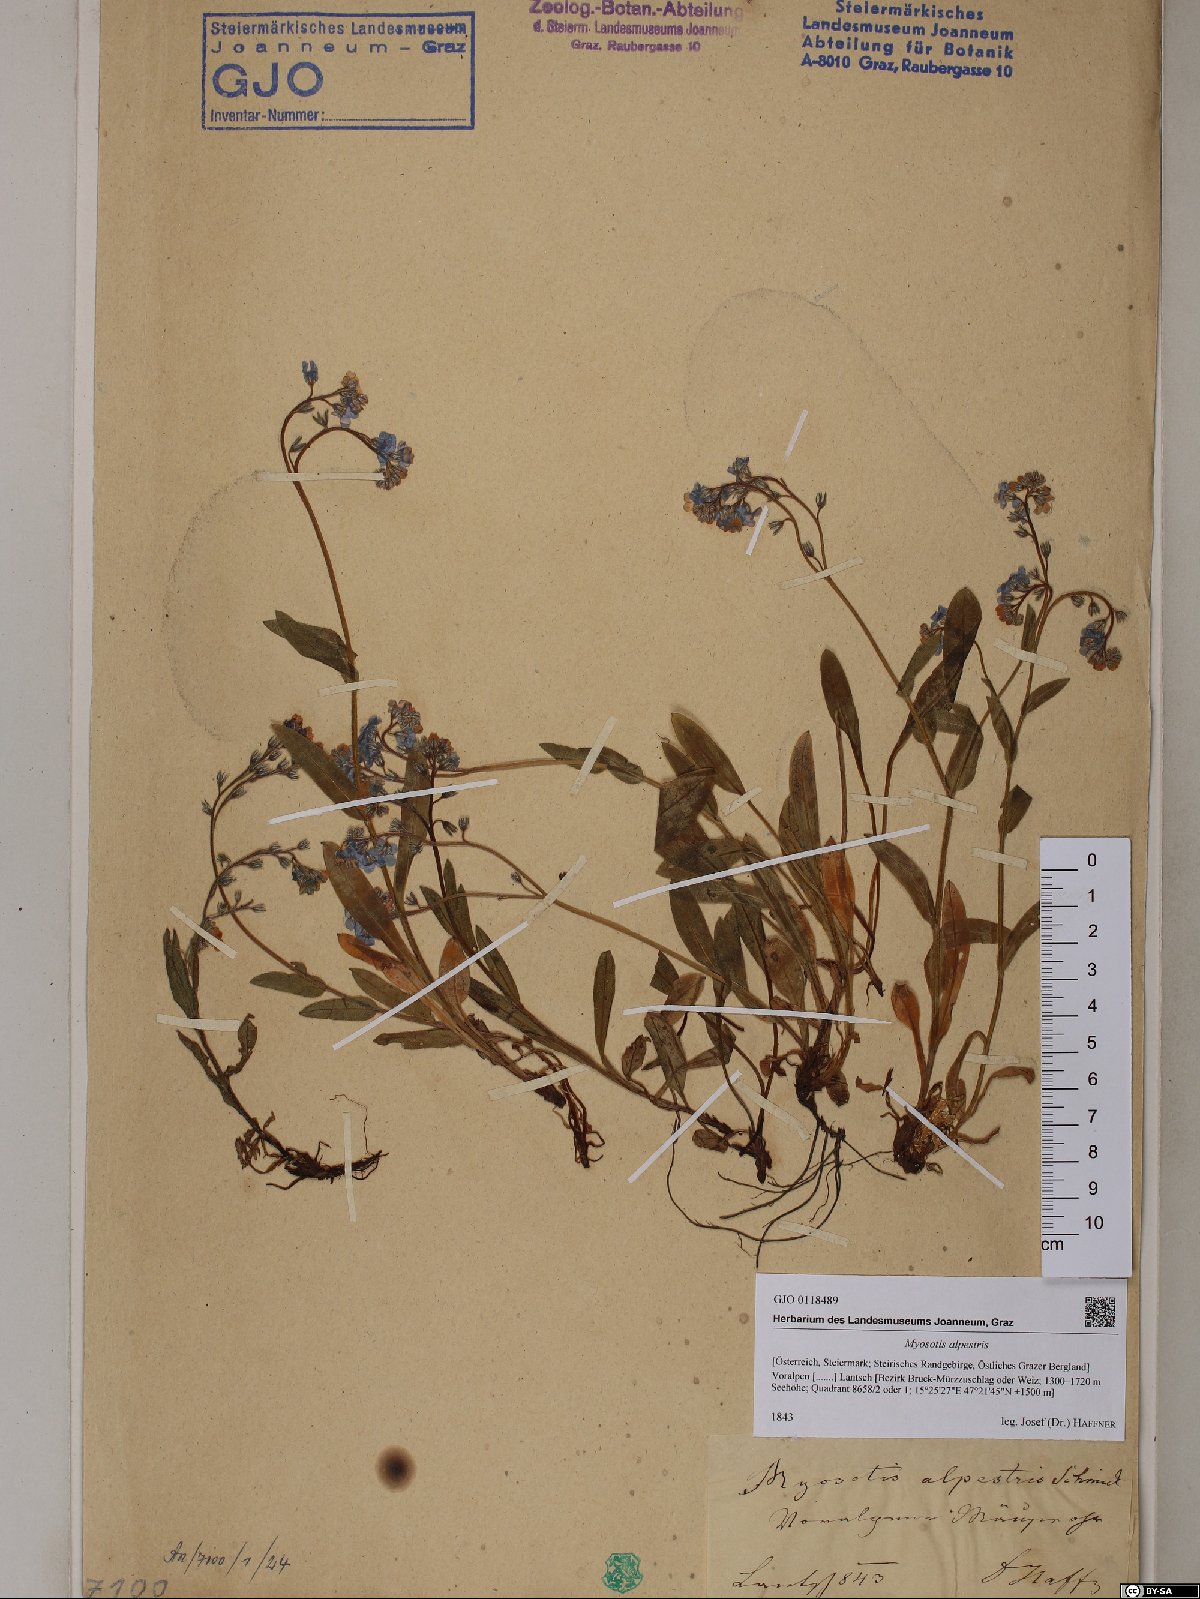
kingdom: Plantae
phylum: Tracheophyta
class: Magnoliopsida
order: Boraginales
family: Boraginaceae
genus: Myosotis
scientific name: Myosotis alpestris
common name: Alpine forget-me-not
